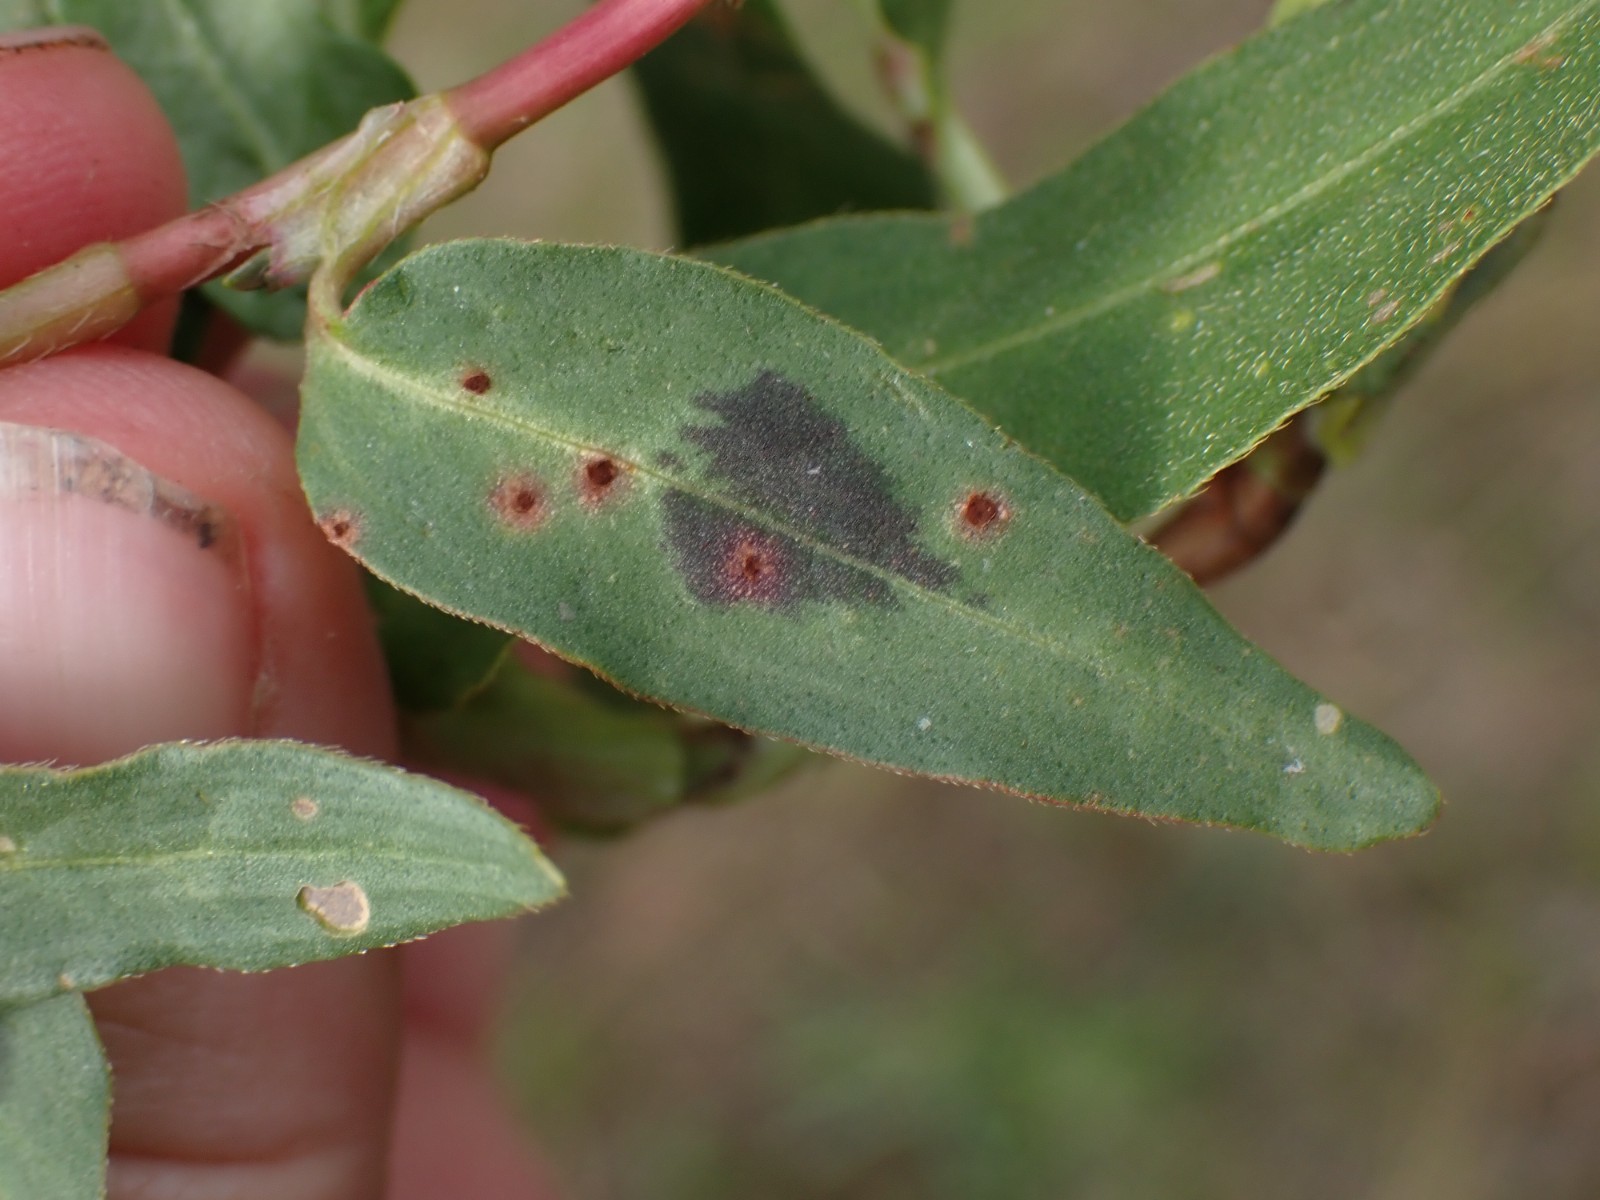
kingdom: Fungi
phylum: Basidiomycota
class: Pucciniomycetes
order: Pucciniales
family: Pucciniaceae
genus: Uromyces
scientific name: Uromyces polygoni-avicularis
